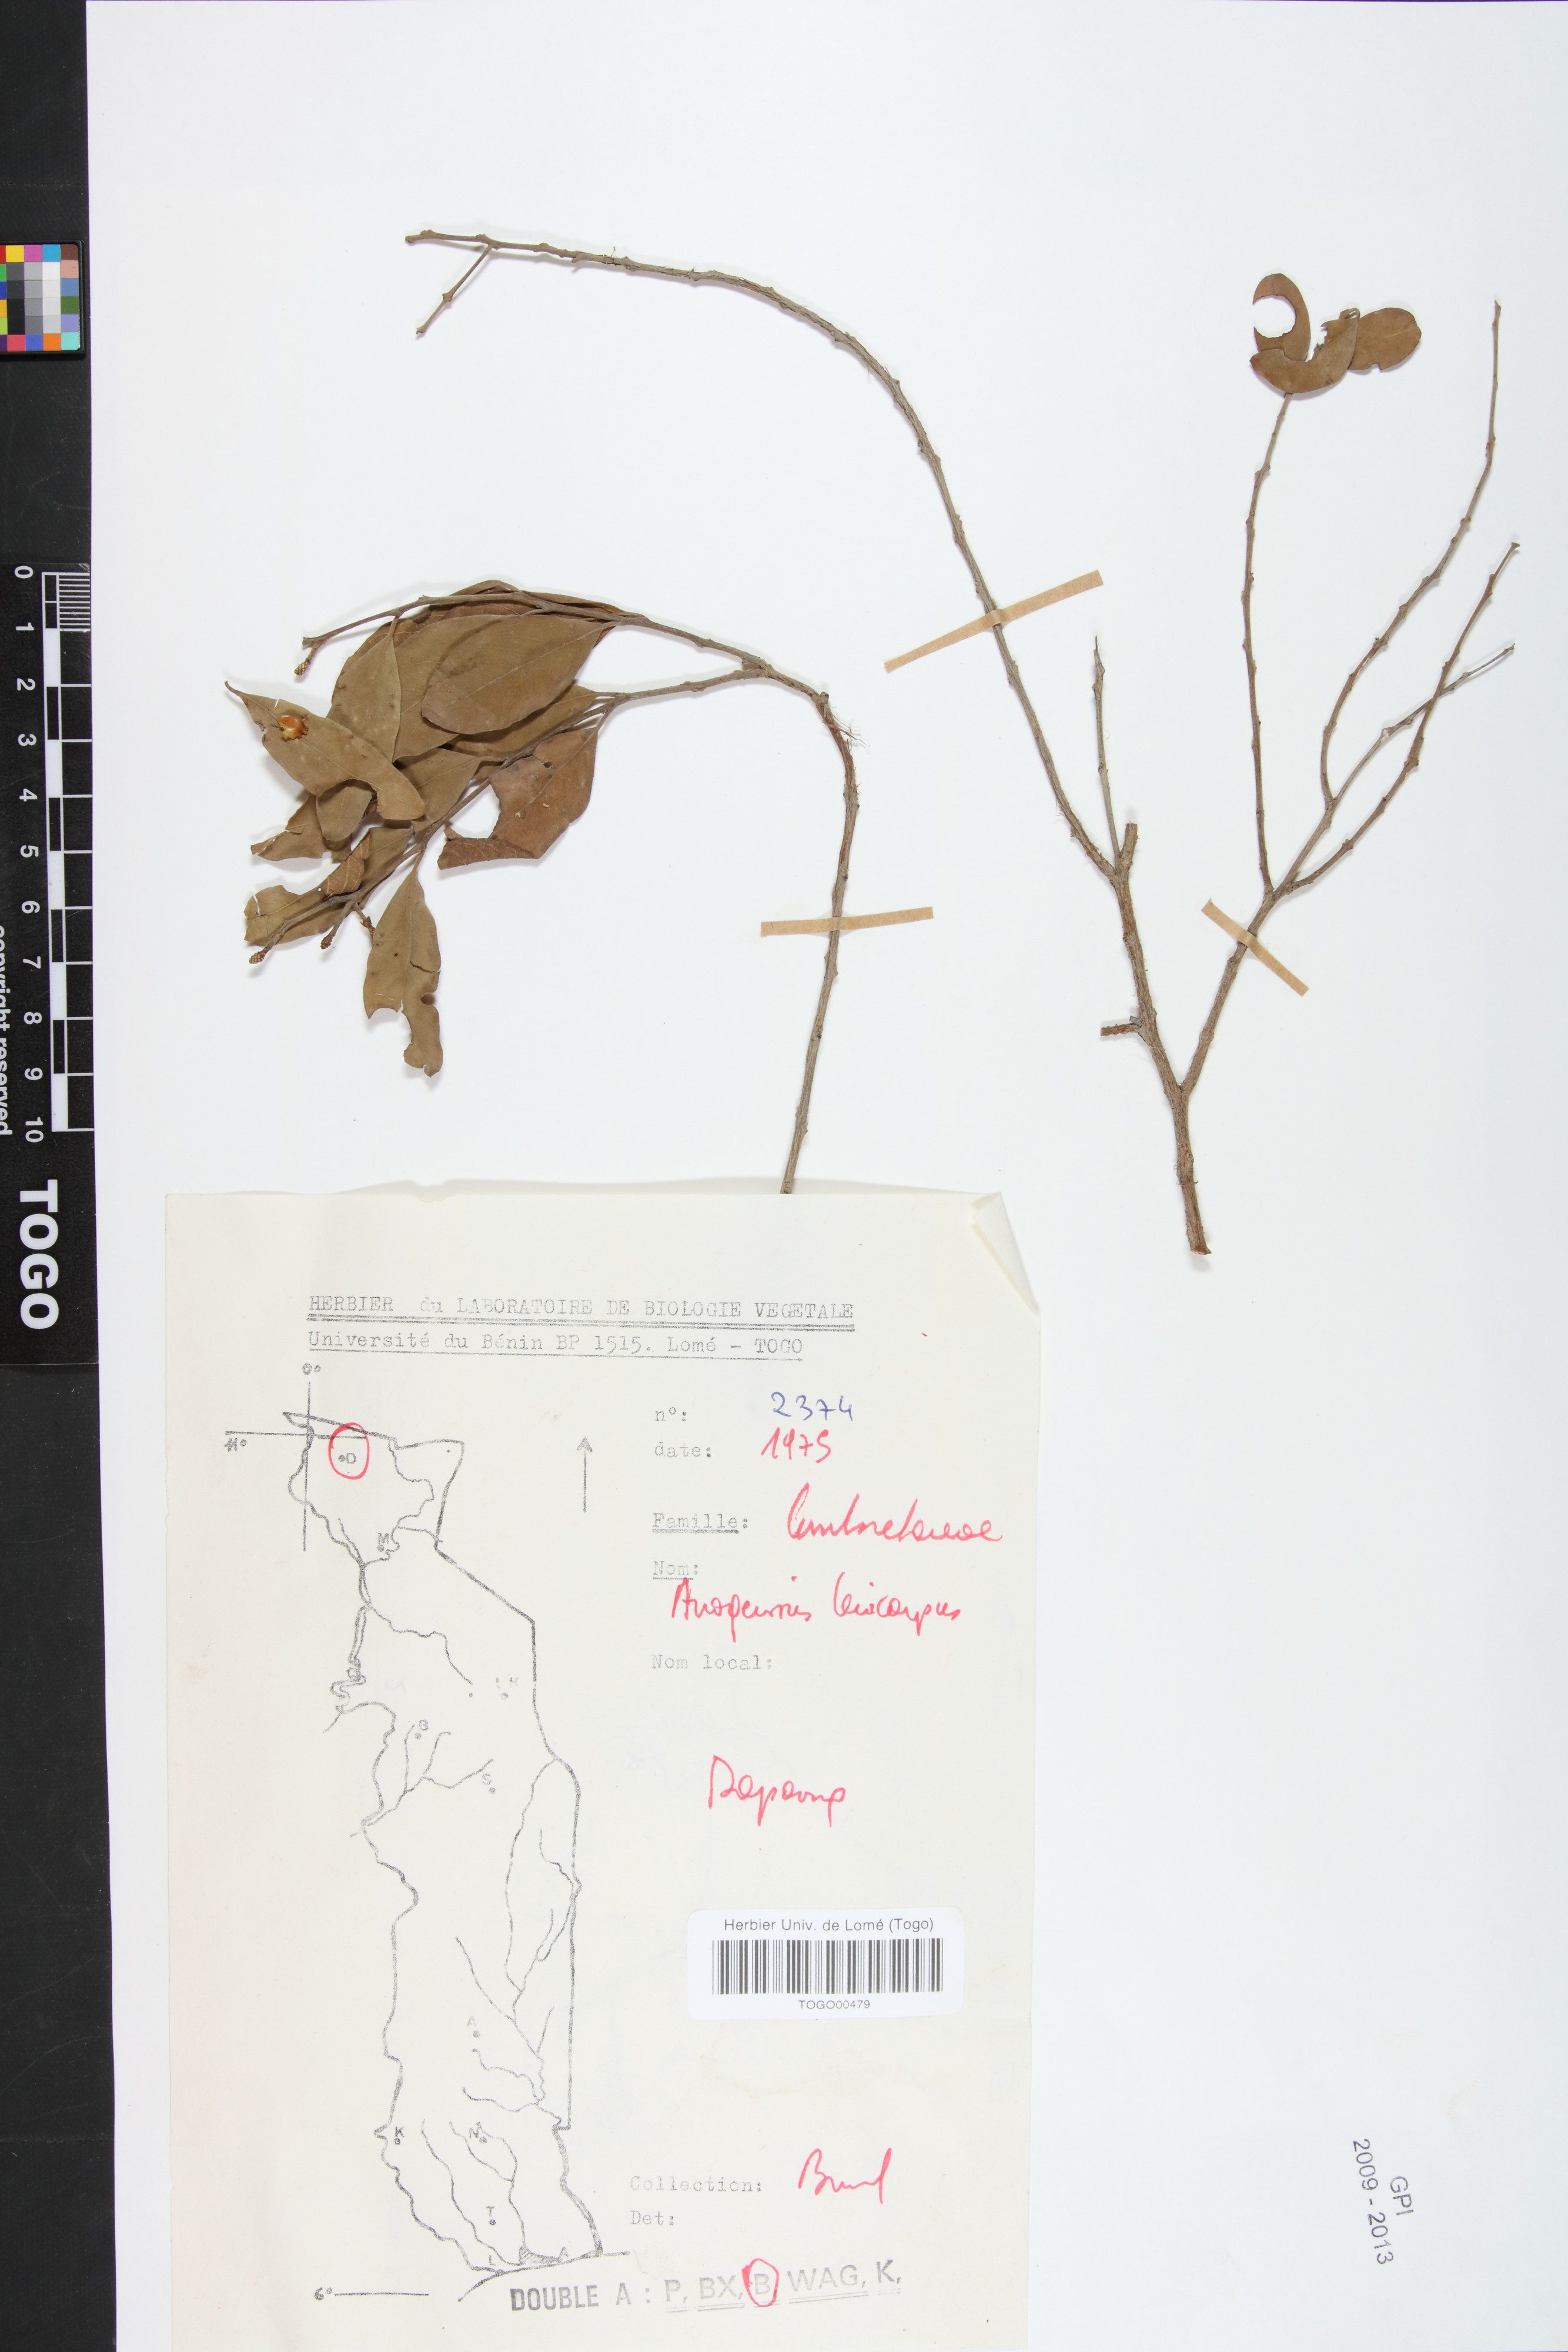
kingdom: Plantae
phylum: Tracheophyta
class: Magnoliopsida
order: Myrtales
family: Combretaceae
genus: Terminalia
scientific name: Terminalia leiocarpa
